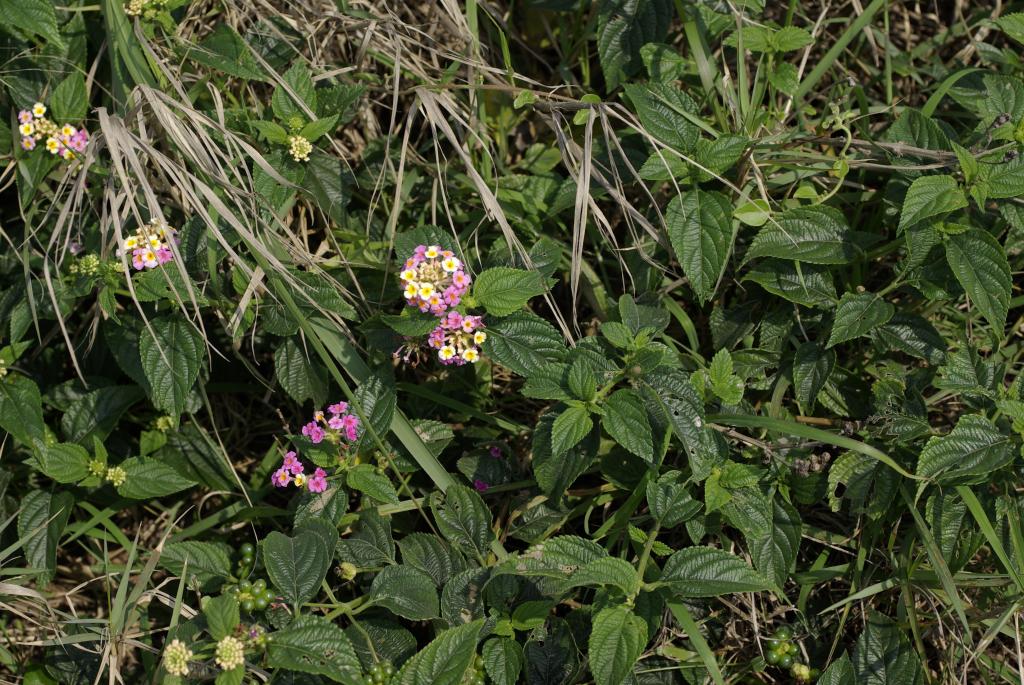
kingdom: Plantae
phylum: Tracheophyta
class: Magnoliopsida
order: Lamiales
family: Verbenaceae
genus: Lantana
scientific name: Lantana camara
